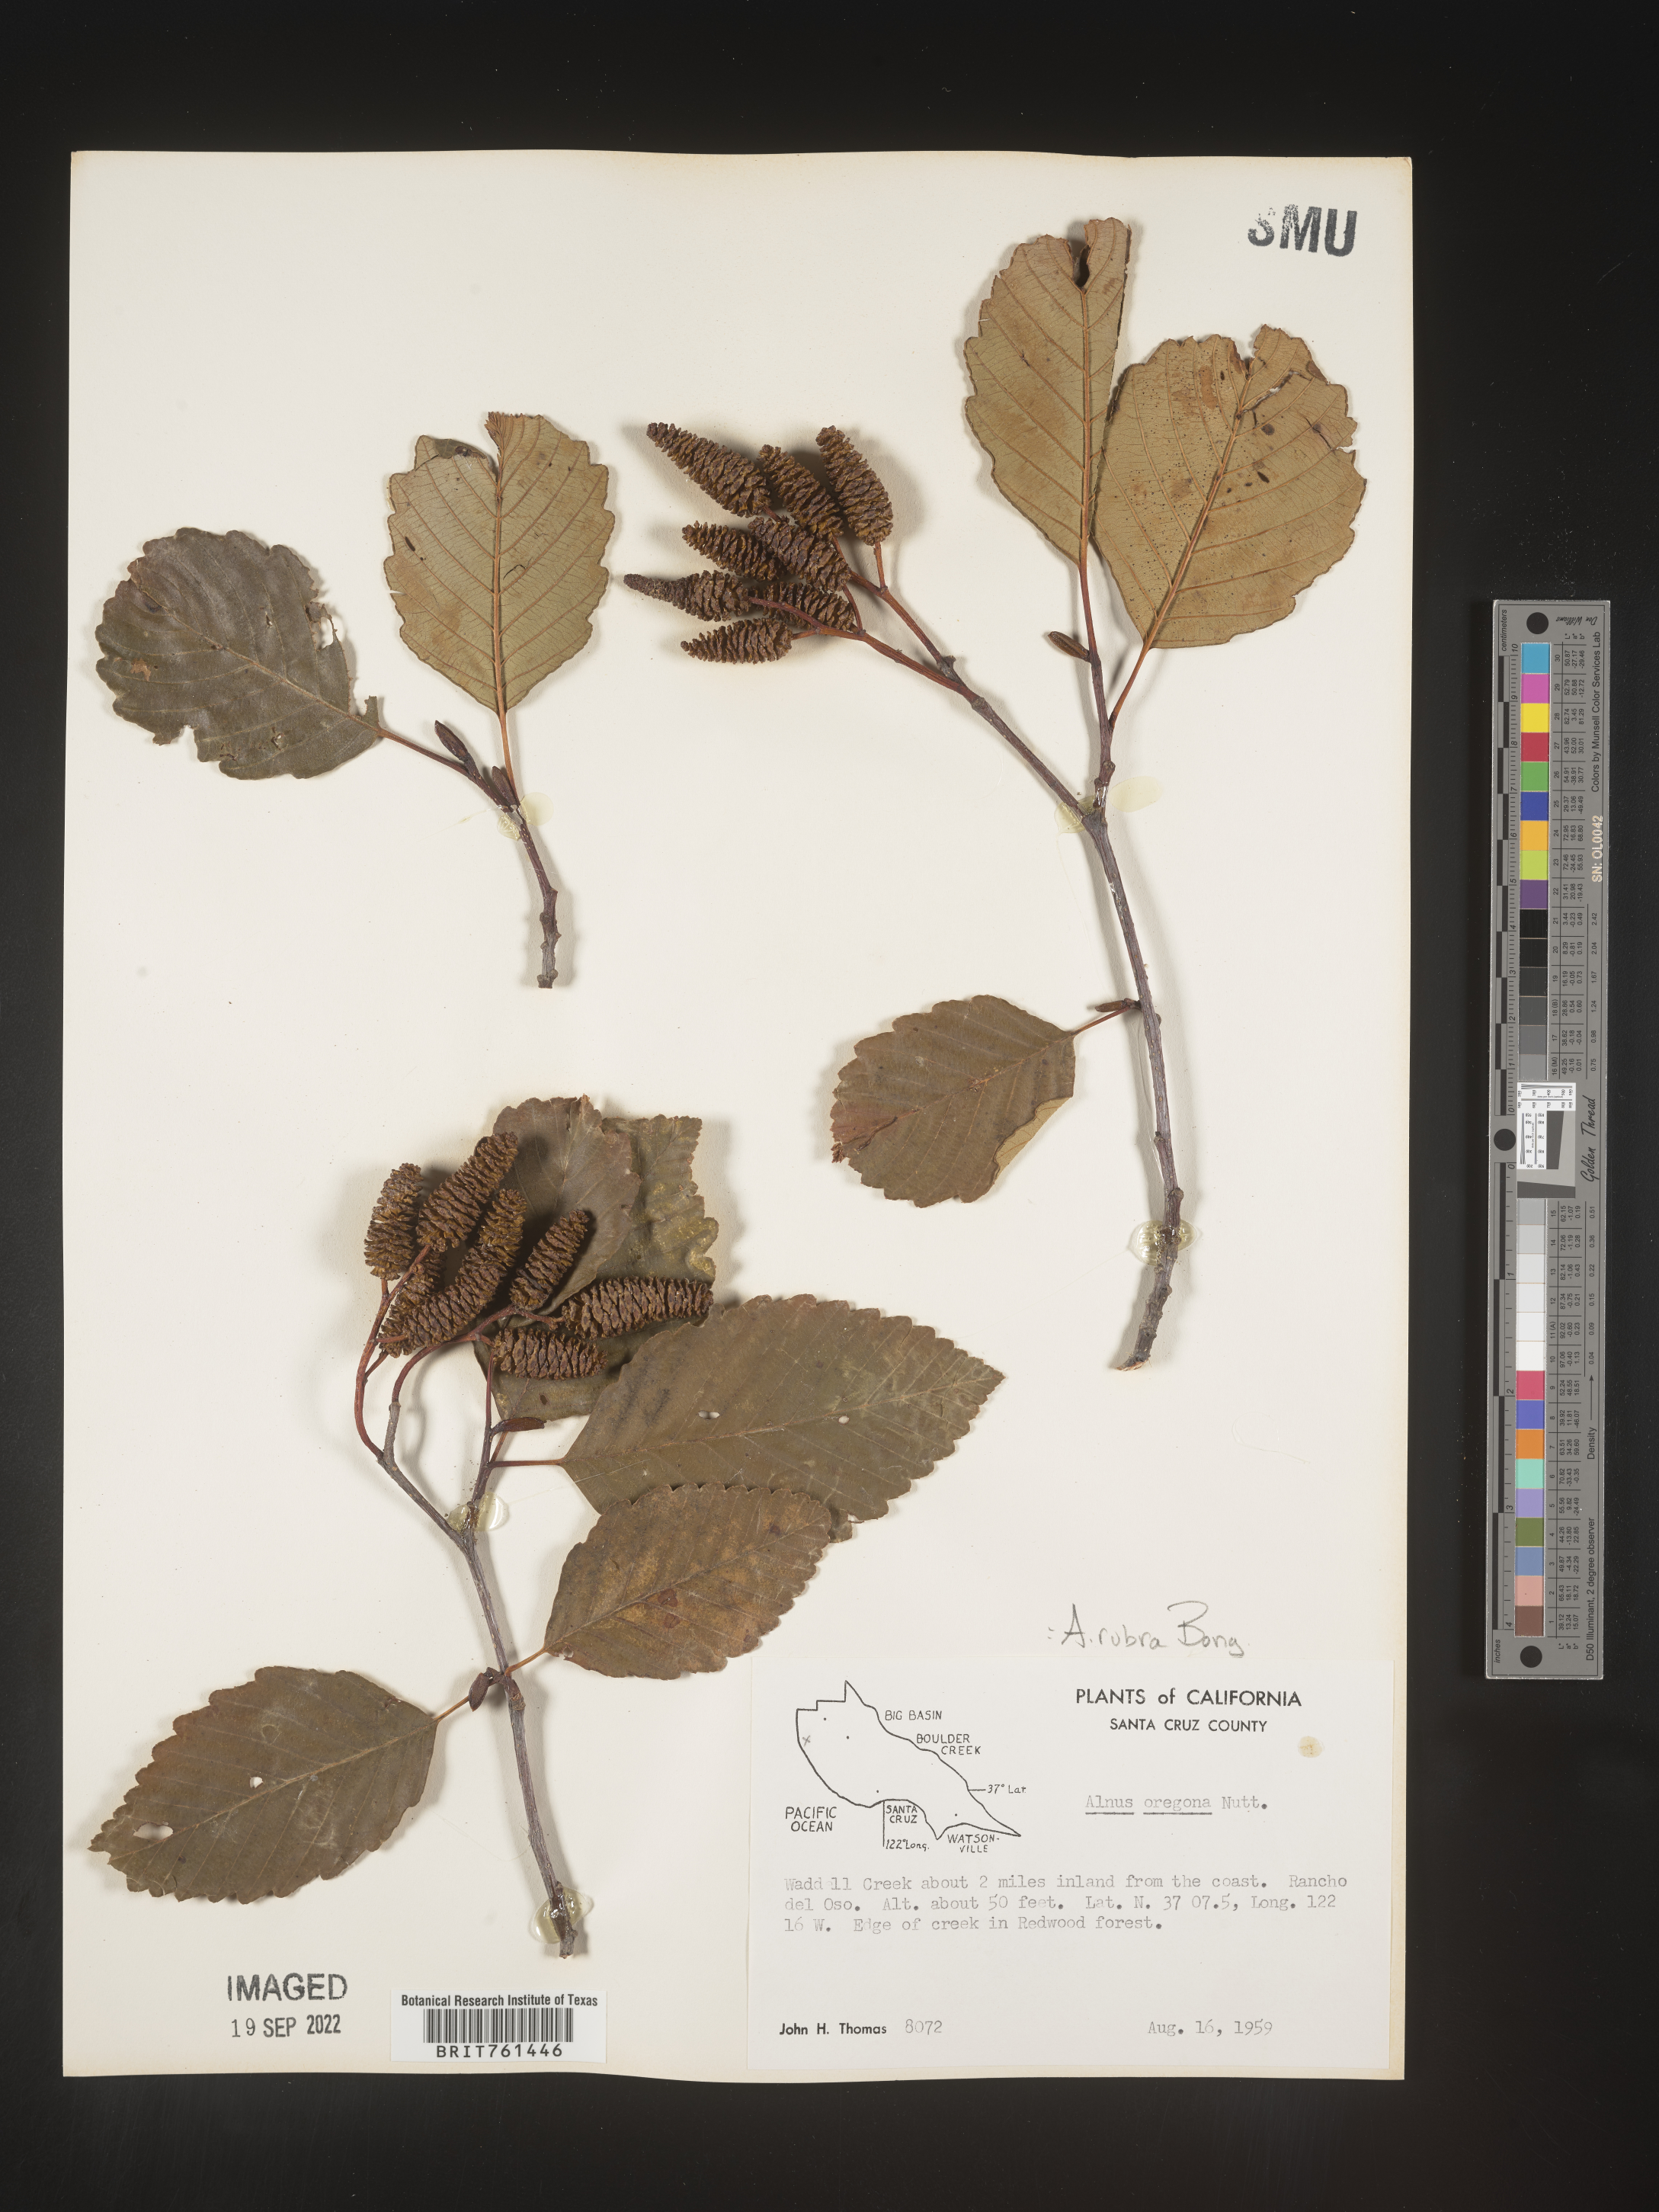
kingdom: Plantae
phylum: Tracheophyta
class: Magnoliopsida
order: Fagales
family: Betulaceae
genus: Alnus
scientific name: Alnus rubra
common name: Red alder
